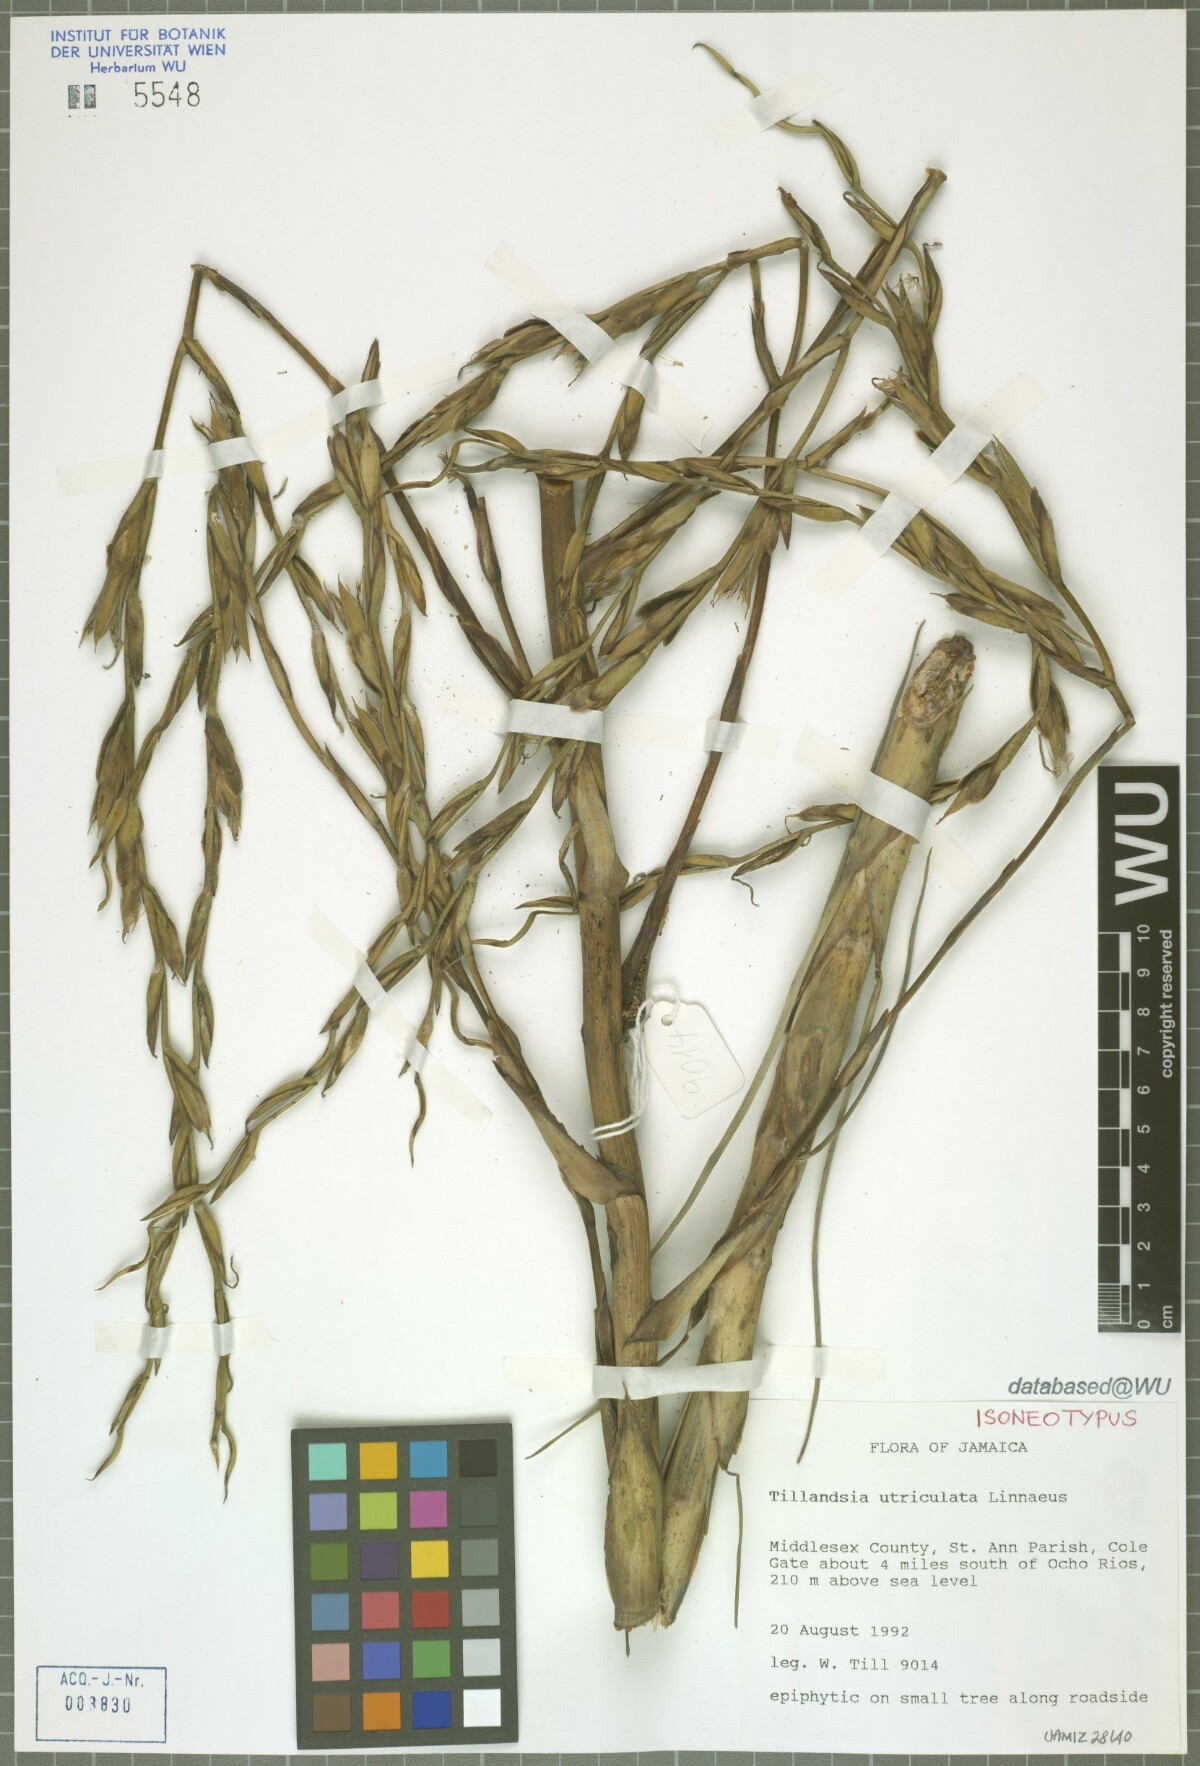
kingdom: Plantae
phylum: Tracheophyta
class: Liliopsida
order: Poales
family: Bromeliaceae
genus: Tillandsia
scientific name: Tillandsia utriculata
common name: Wild pine
